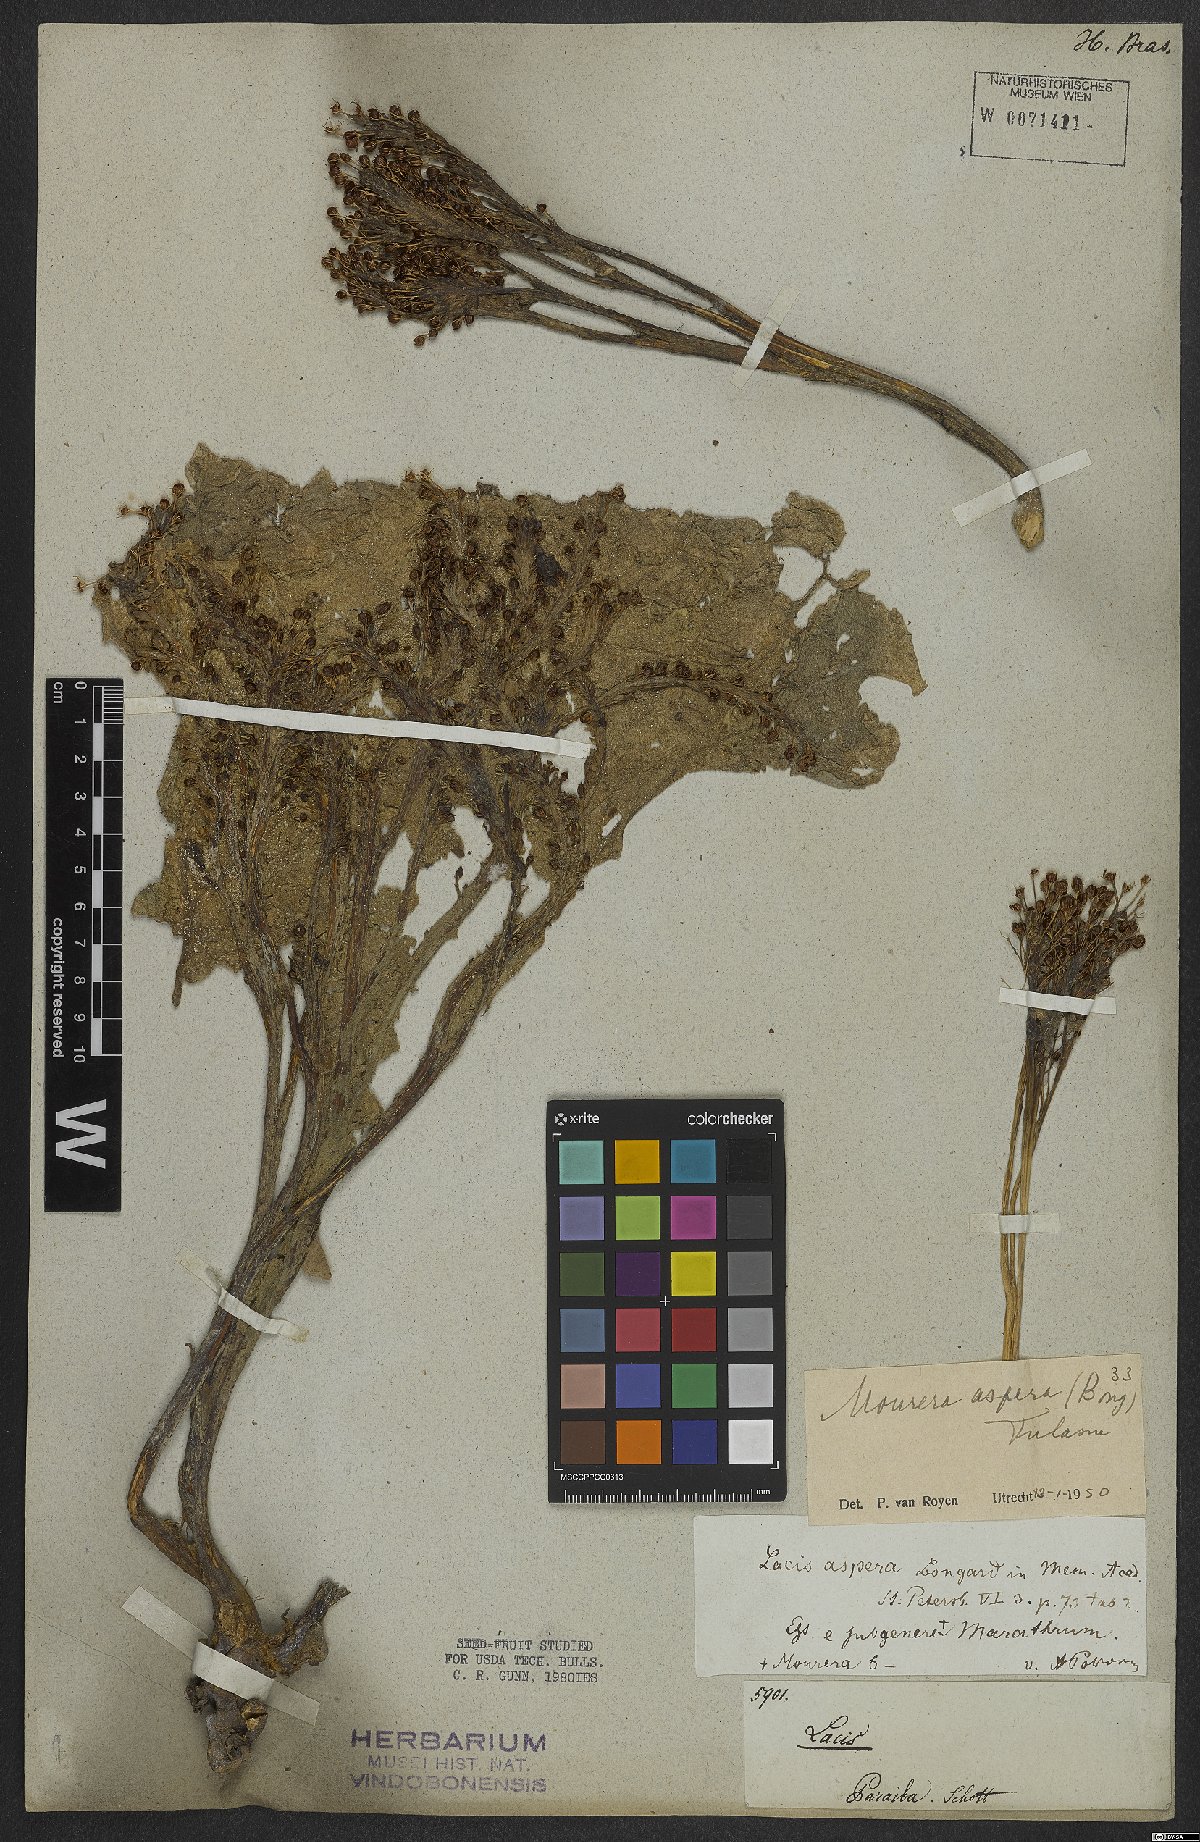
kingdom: Plantae
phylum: Tracheophyta
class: Magnoliopsida
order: Malpighiales
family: Podostemaceae
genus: Mourera
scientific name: Mourera aspera
